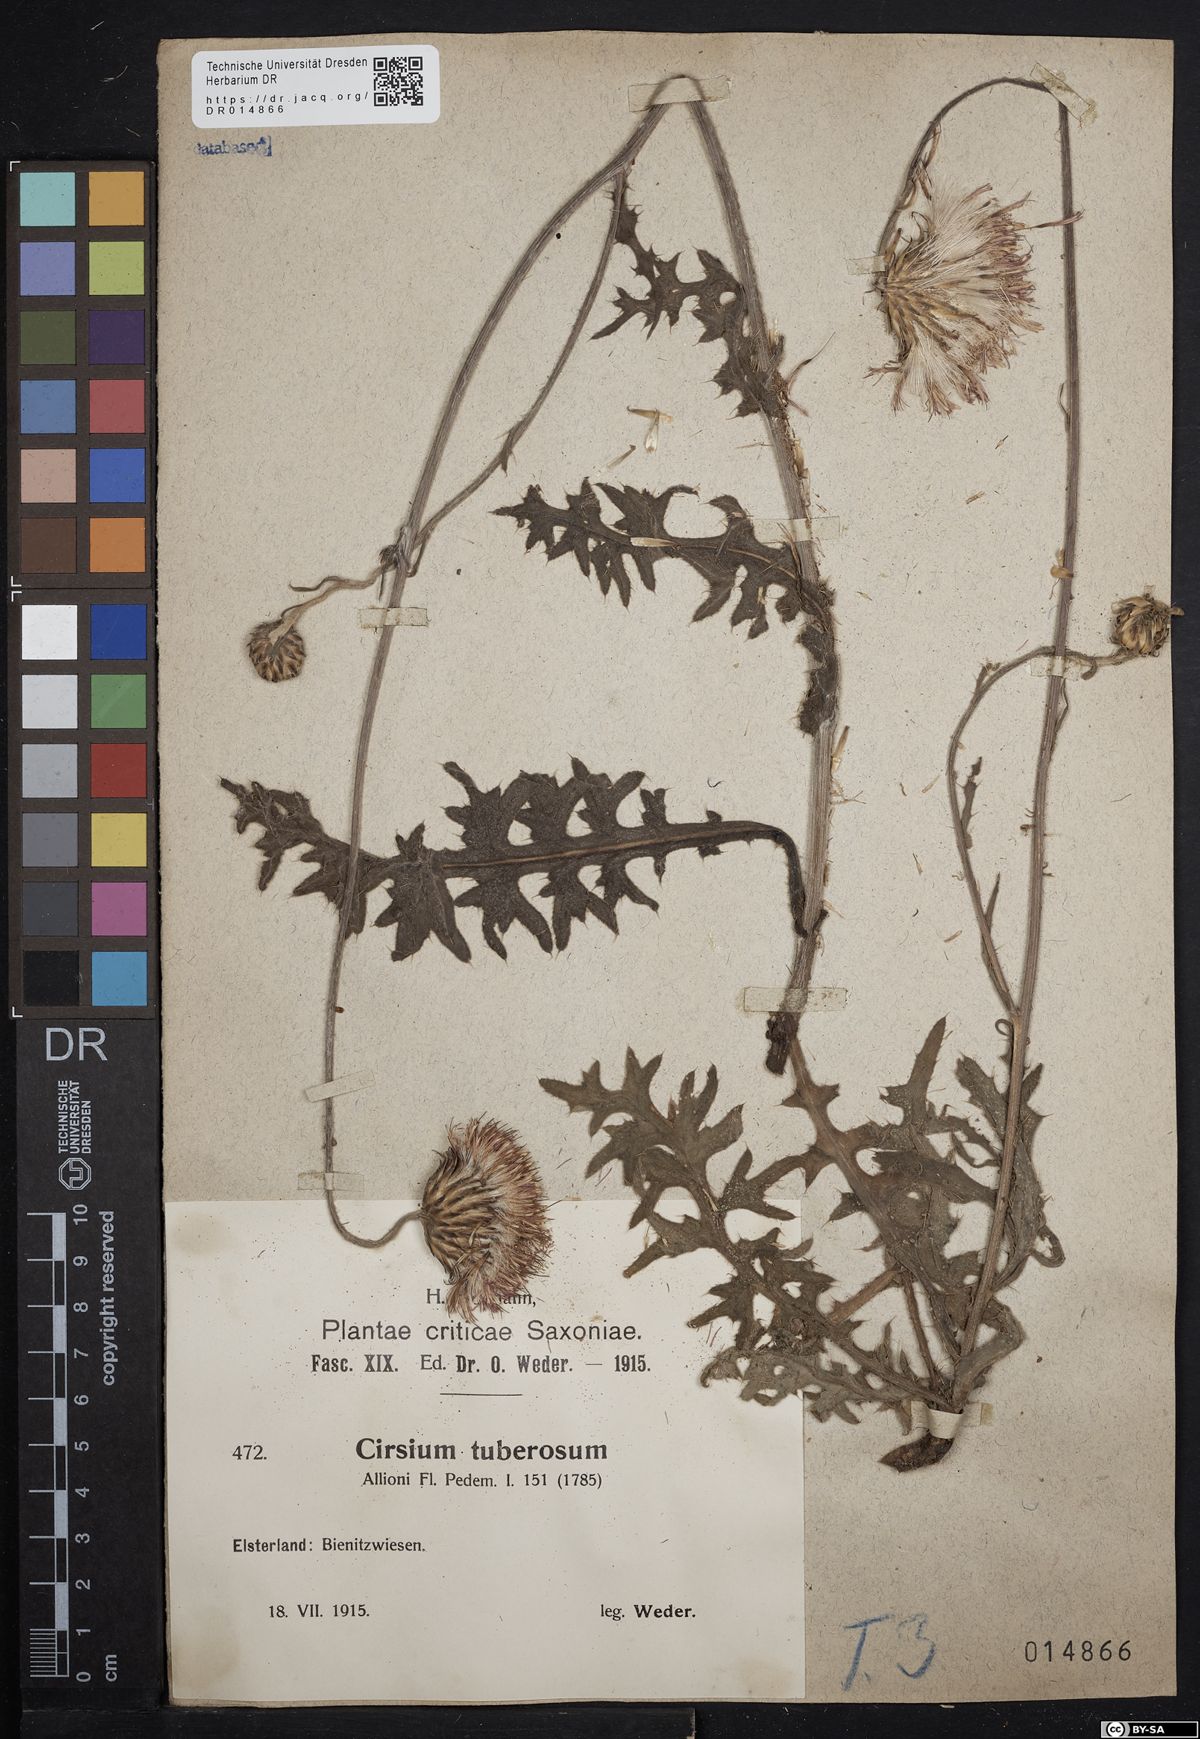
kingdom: Plantae
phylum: Tracheophyta
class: Magnoliopsida
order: Asterales
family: Asteraceae
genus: Cirsium
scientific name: Cirsium tuberosum
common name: Tuberous thistle
